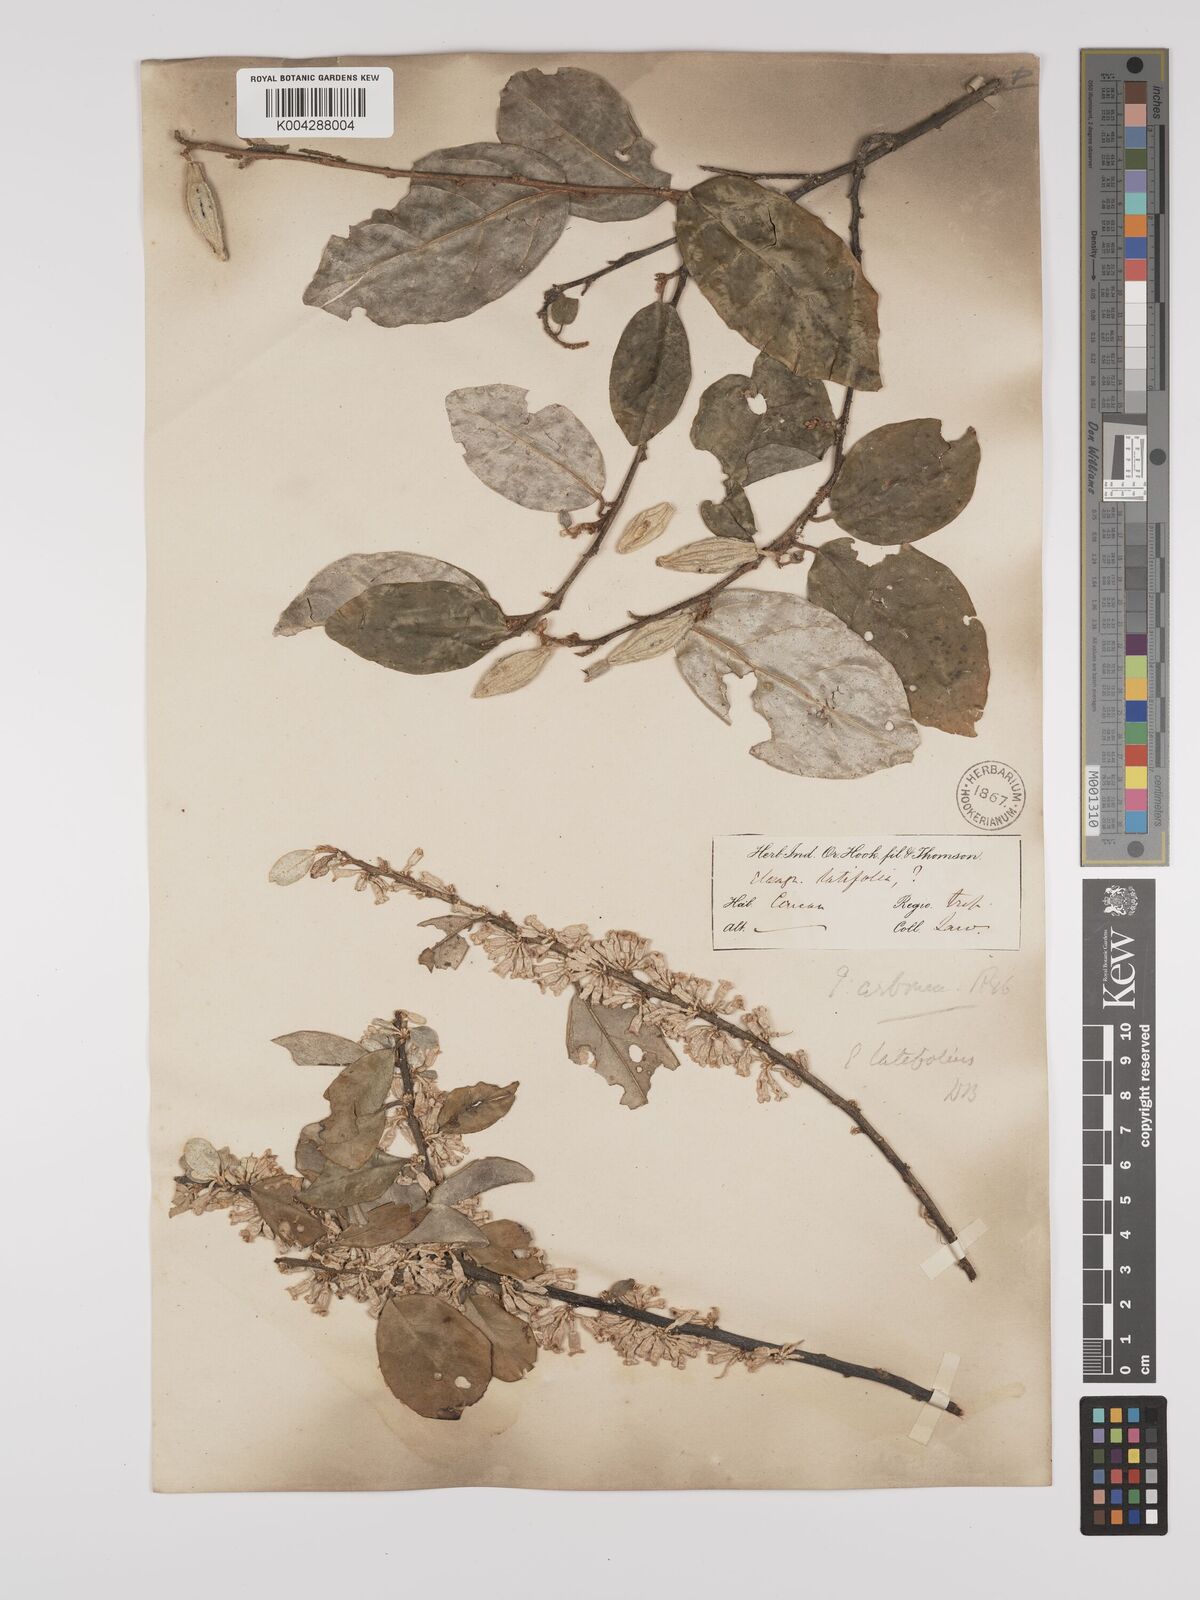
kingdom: Plantae
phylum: Tracheophyta
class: Magnoliopsida
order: Rosales
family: Elaeagnaceae
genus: Elaeagnus
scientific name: Elaeagnus latifolia
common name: Oleaster
